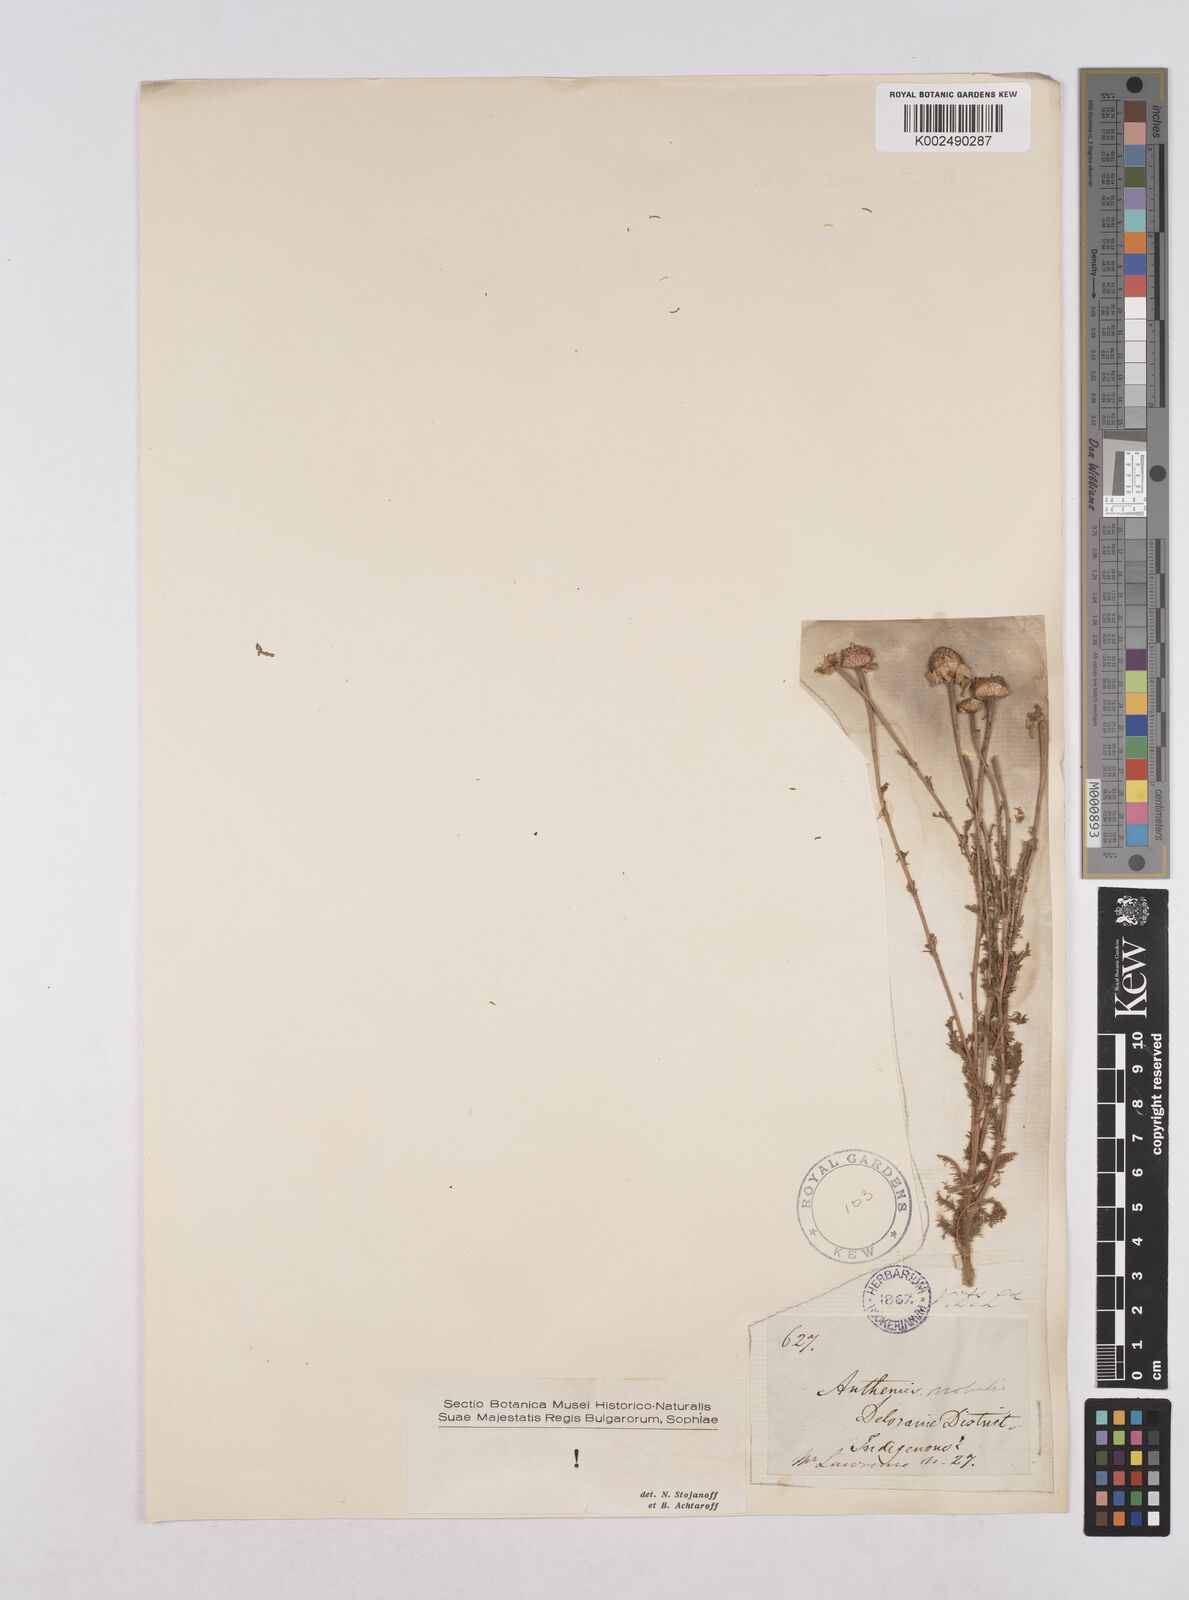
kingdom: Plantae
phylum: Tracheophyta
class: Magnoliopsida
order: Asterales
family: Asteraceae
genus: Chamaemelum
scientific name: Chamaemelum nobile
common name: Roman chamomile
